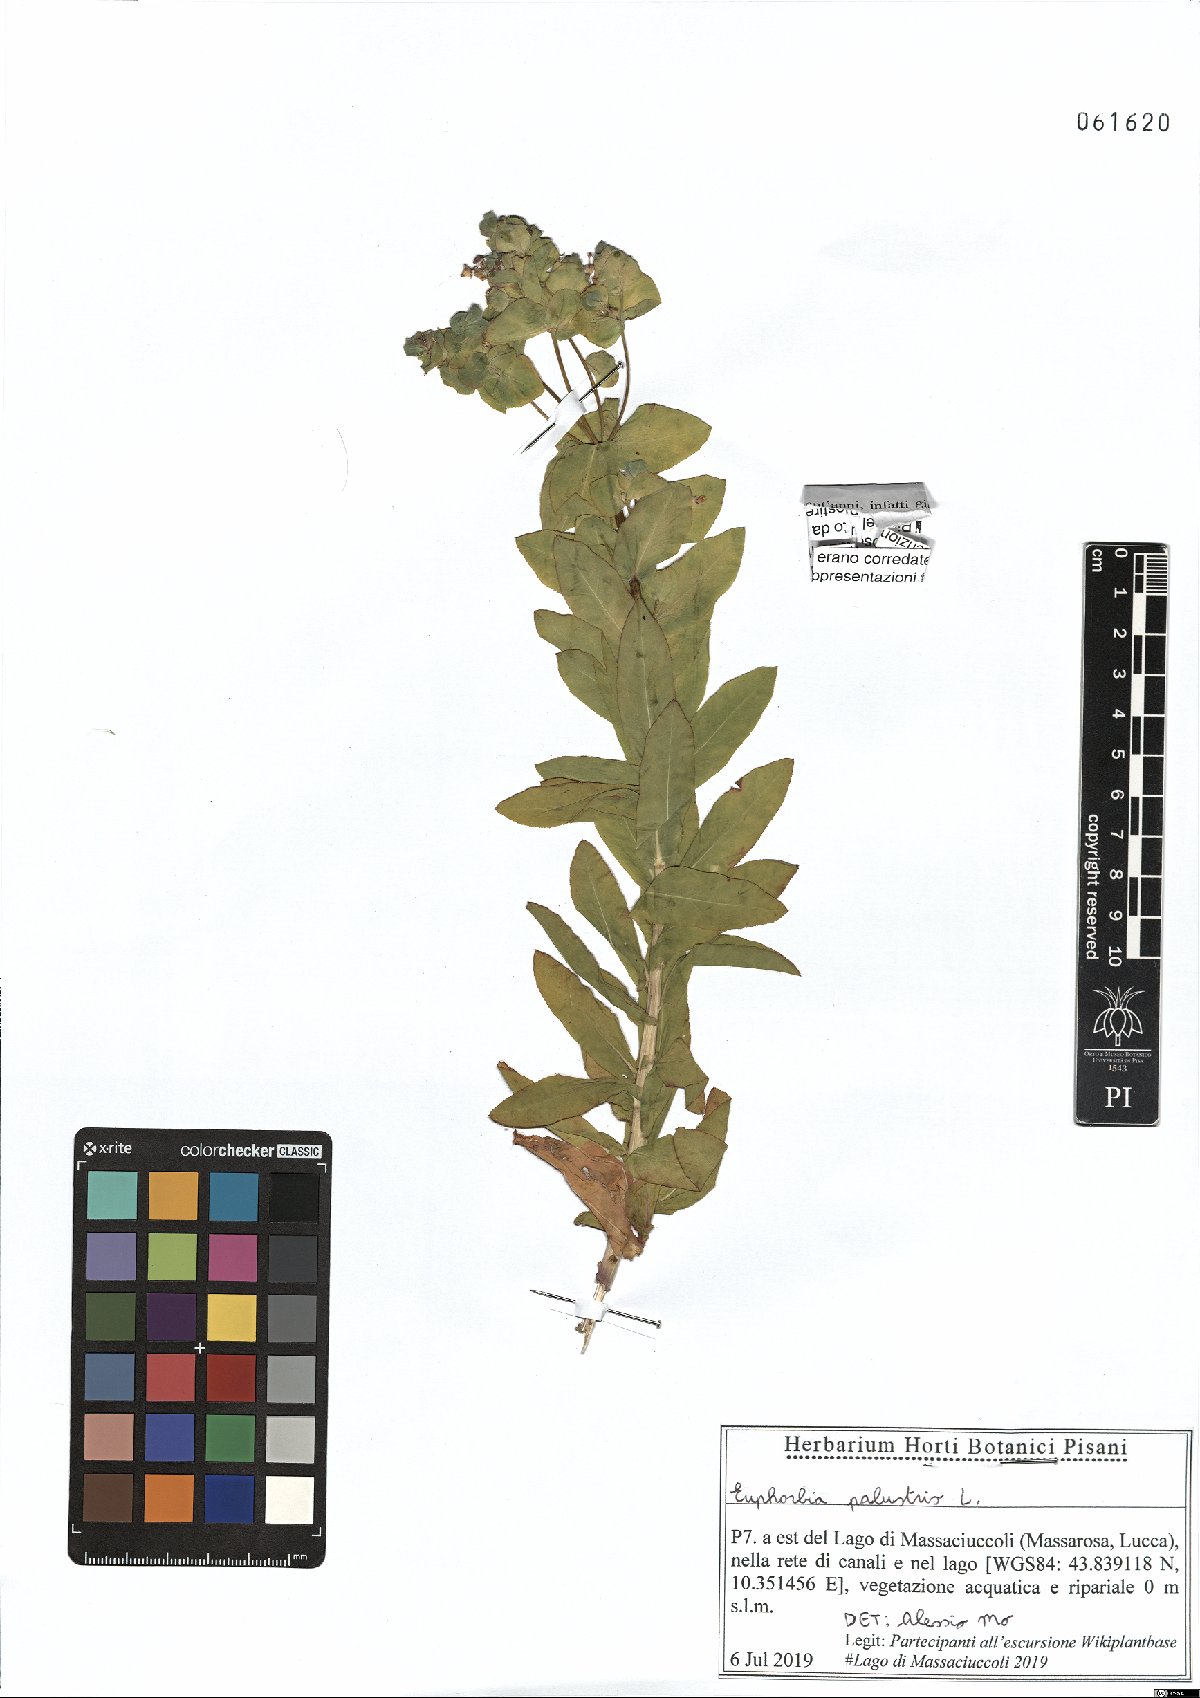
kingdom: Plantae
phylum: Tracheophyta
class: Magnoliopsida
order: Malpighiales
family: Euphorbiaceae
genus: Euphorbia
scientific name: Euphorbia palustris
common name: Marsh spurge
